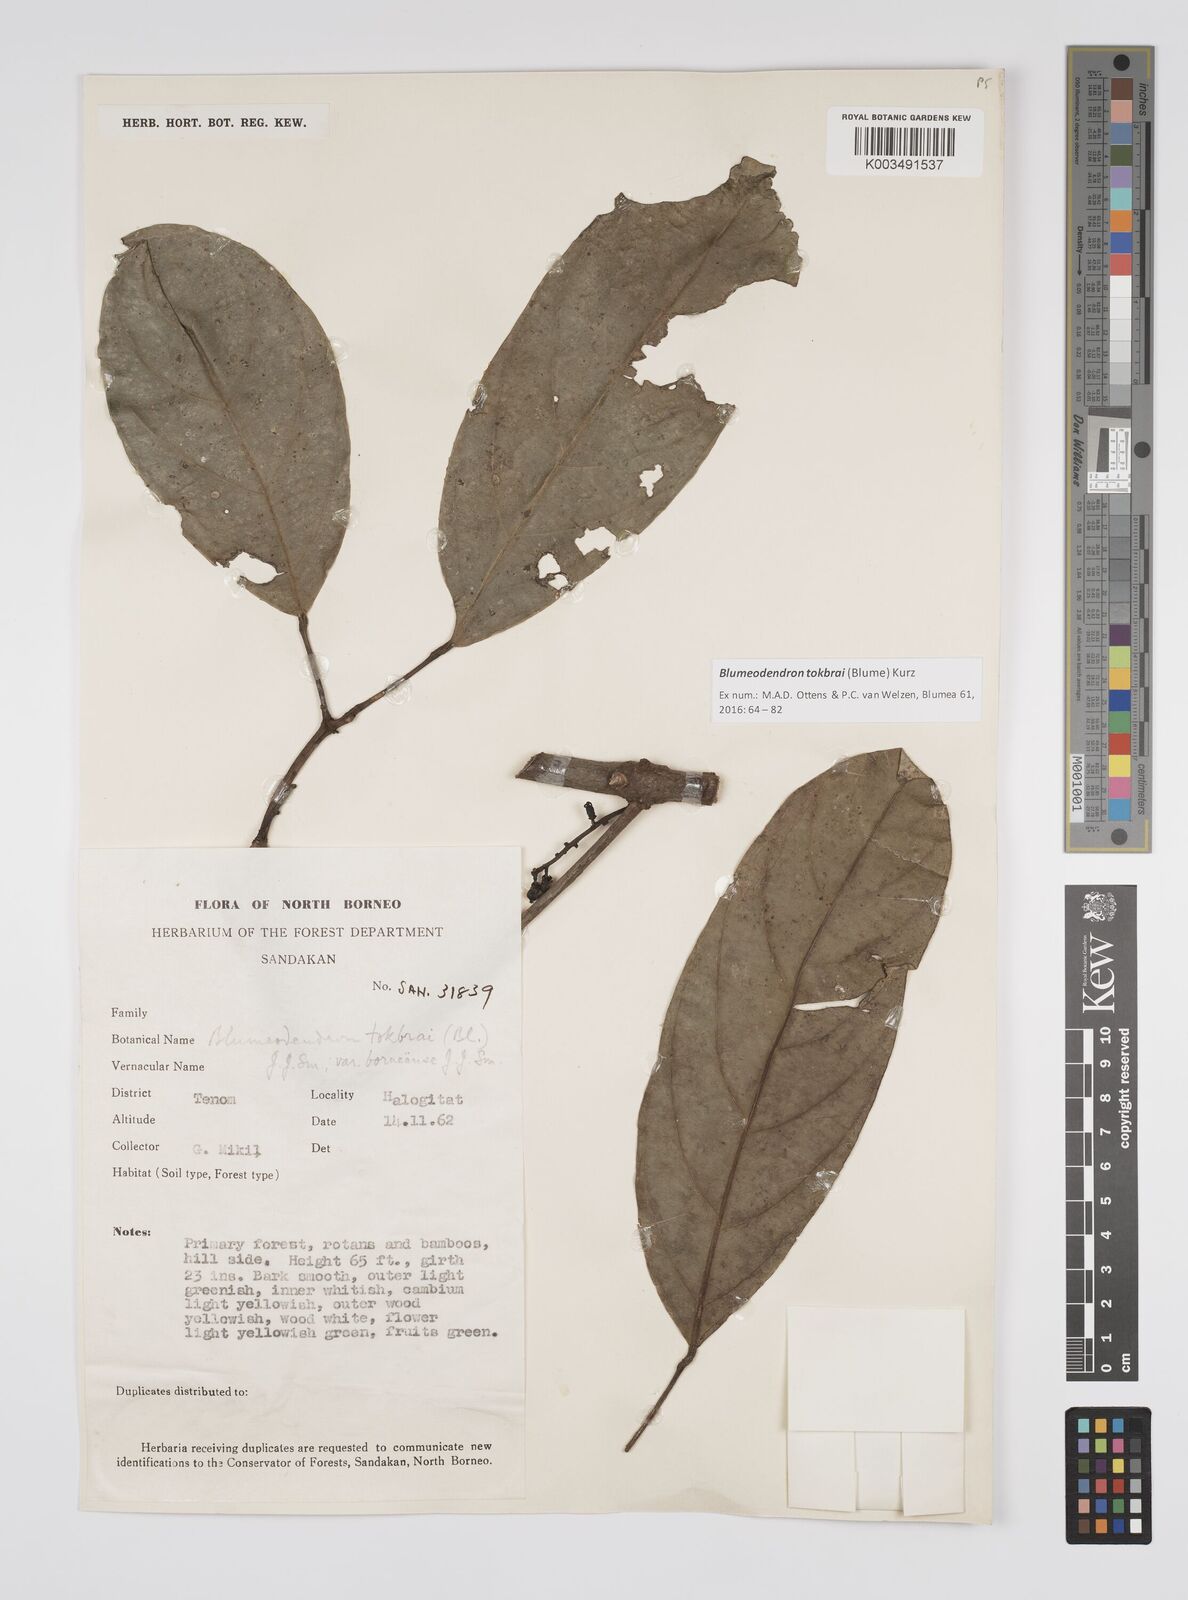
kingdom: Plantae
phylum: Tracheophyta
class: Magnoliopsida
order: Malpighiales
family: Euphorbiaceae
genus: Blumeodendron
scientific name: Blumeodendron tokbrai
